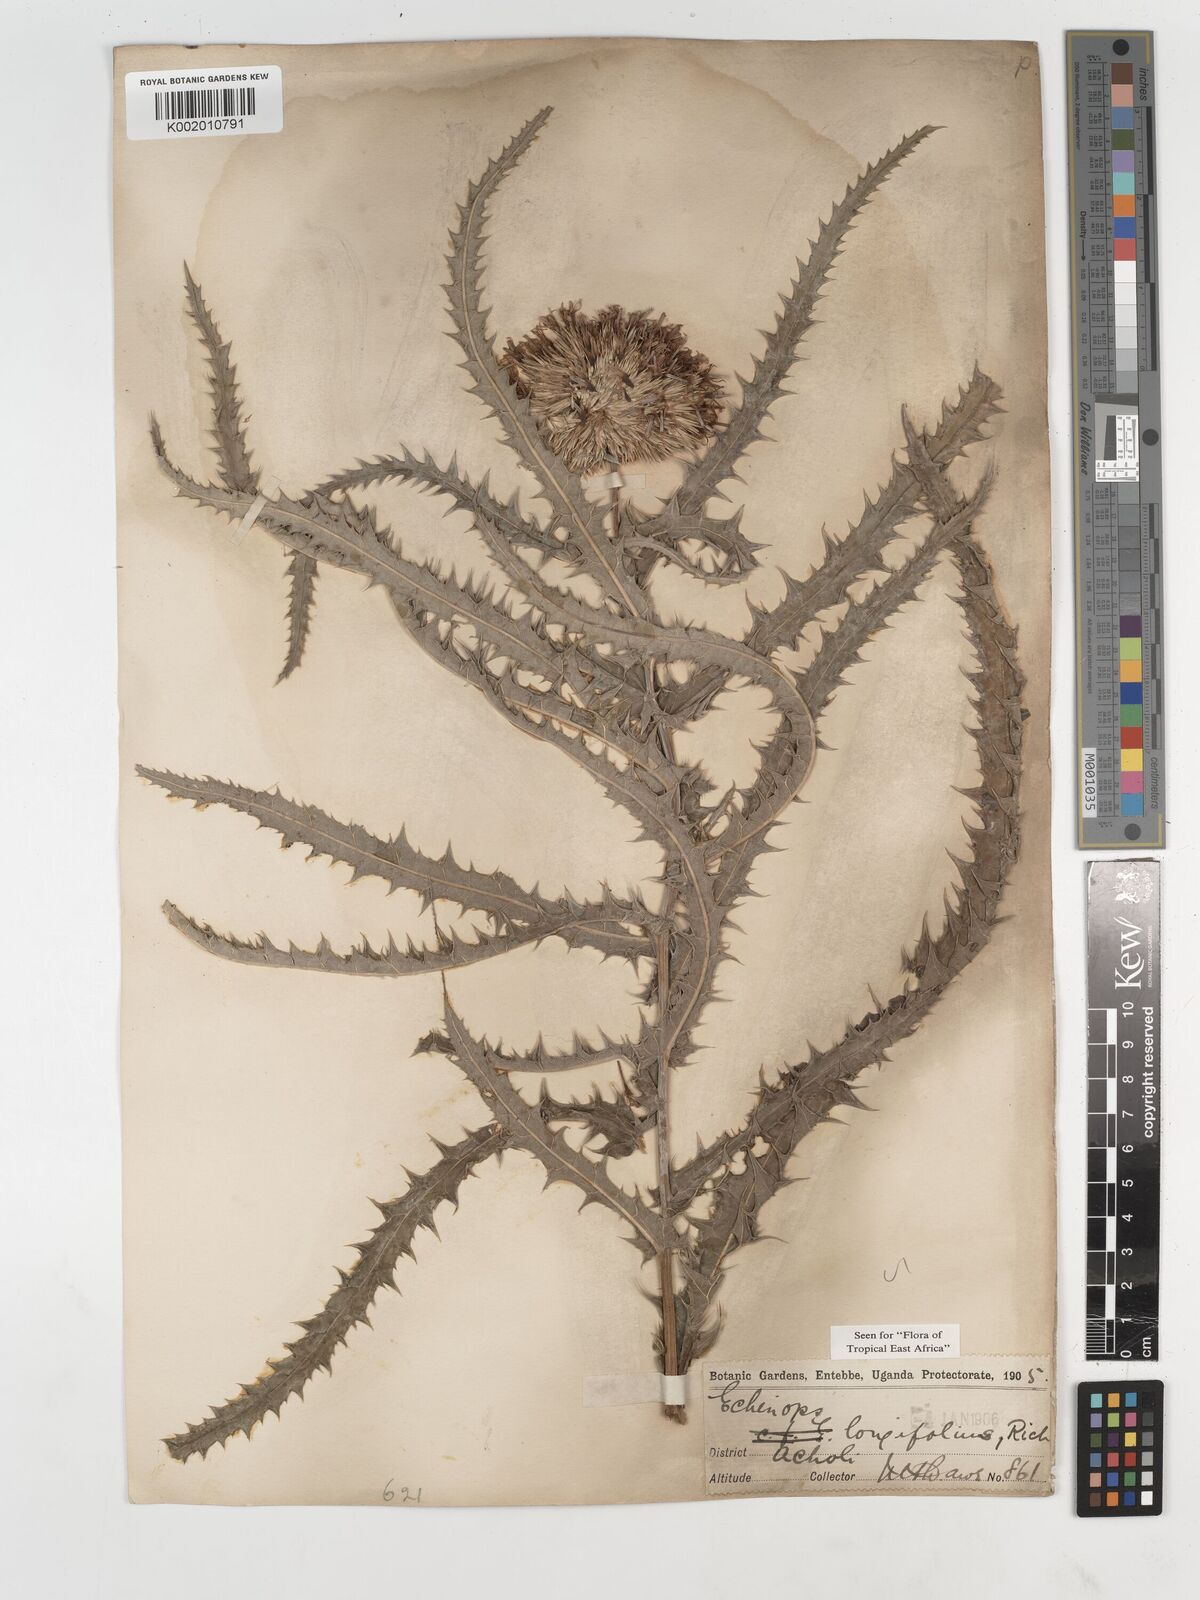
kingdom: Plantae
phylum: Tracheophyta
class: Magnoliopsida
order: Asterales
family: Asteraceae
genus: Echinops
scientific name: Echinops longifolius
